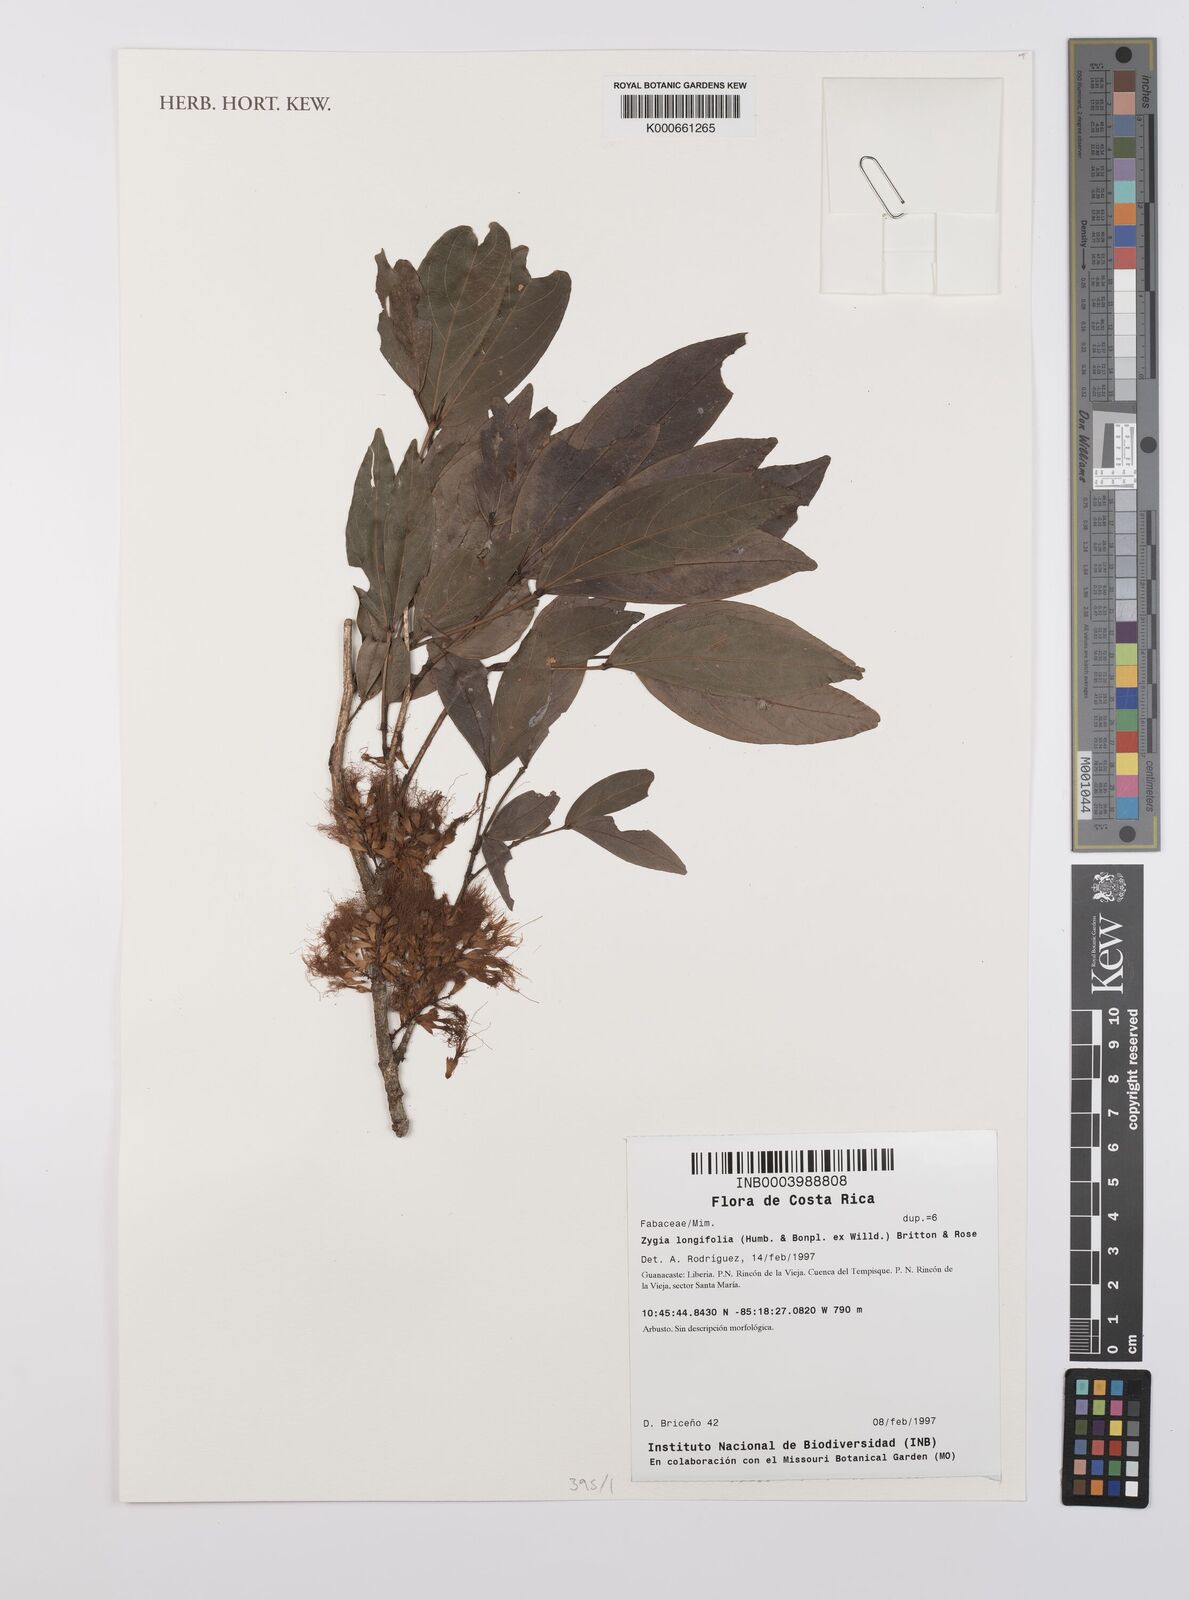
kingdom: Plantae
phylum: Tracheophyta
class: Magnoliopsida
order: Fabales
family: Fabaceae
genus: Zygia
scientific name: Zygia longifolia
